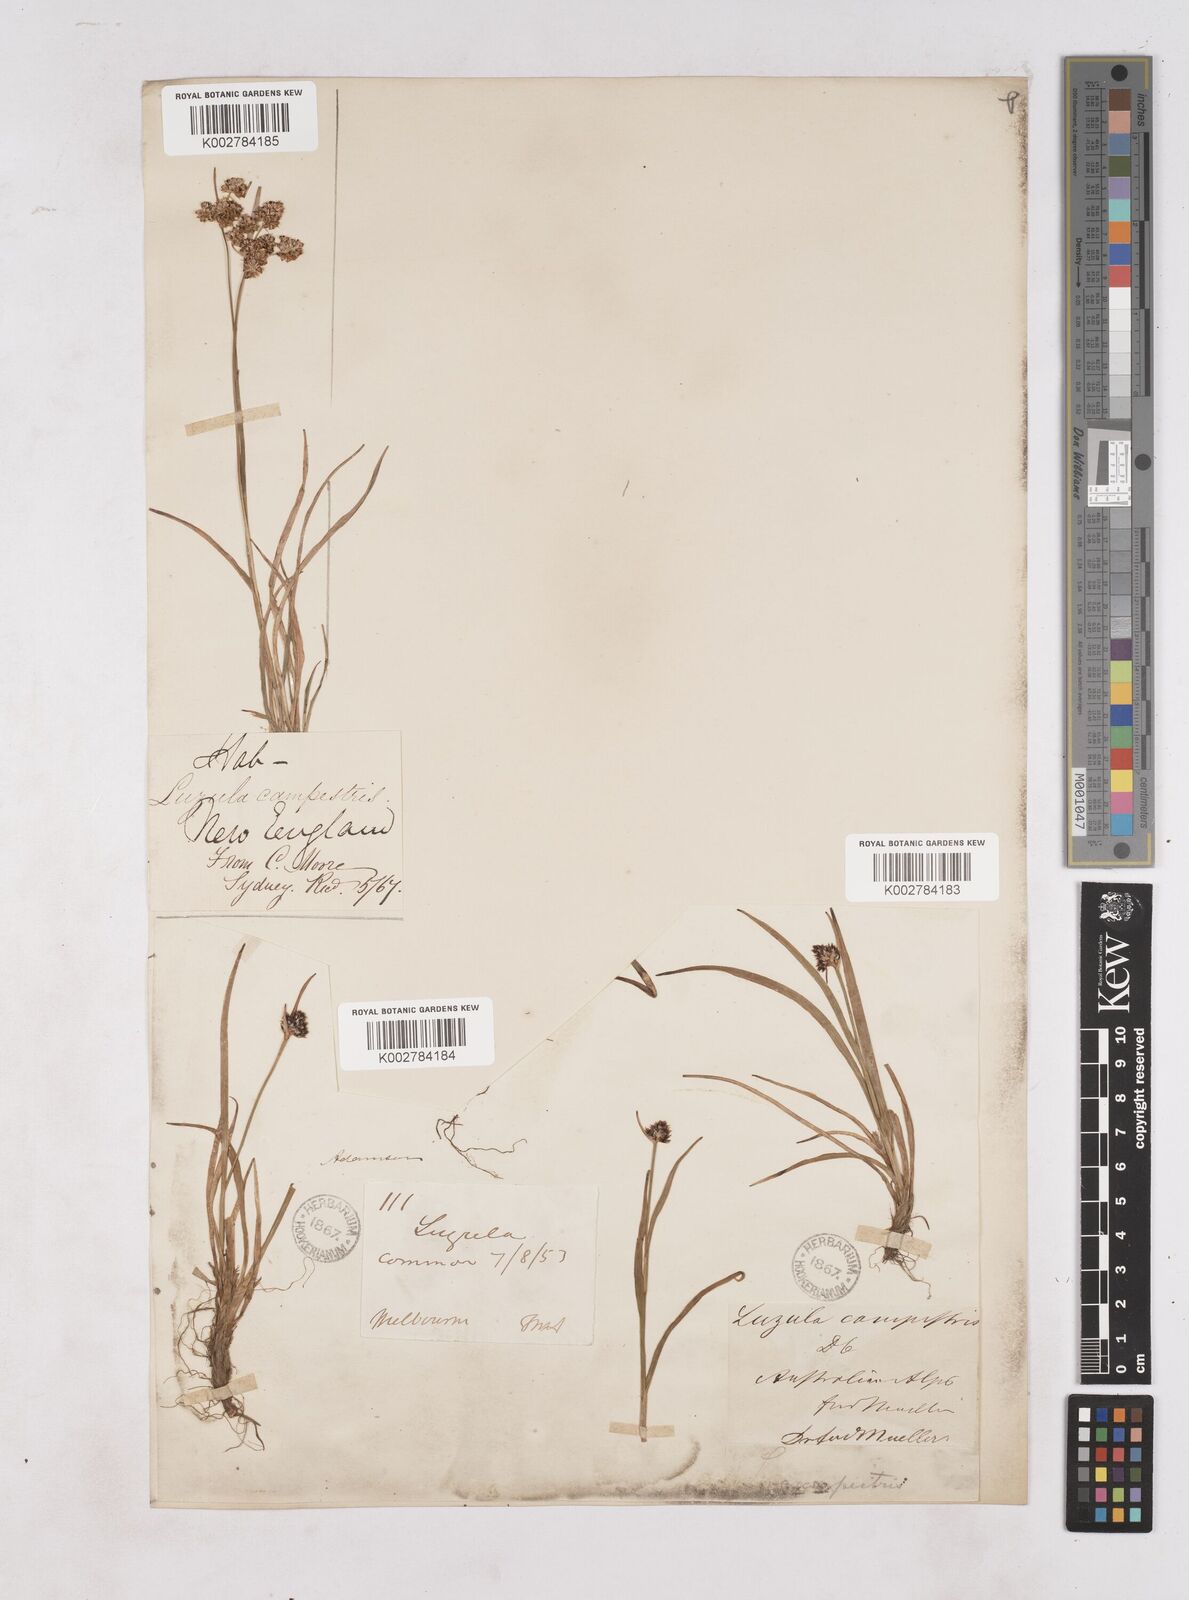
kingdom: Plantae
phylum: Tracheophyta
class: Liliopsida
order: Poales
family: Juncaceae
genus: Luzula
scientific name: Luzula campestris
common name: Field wood-rush
